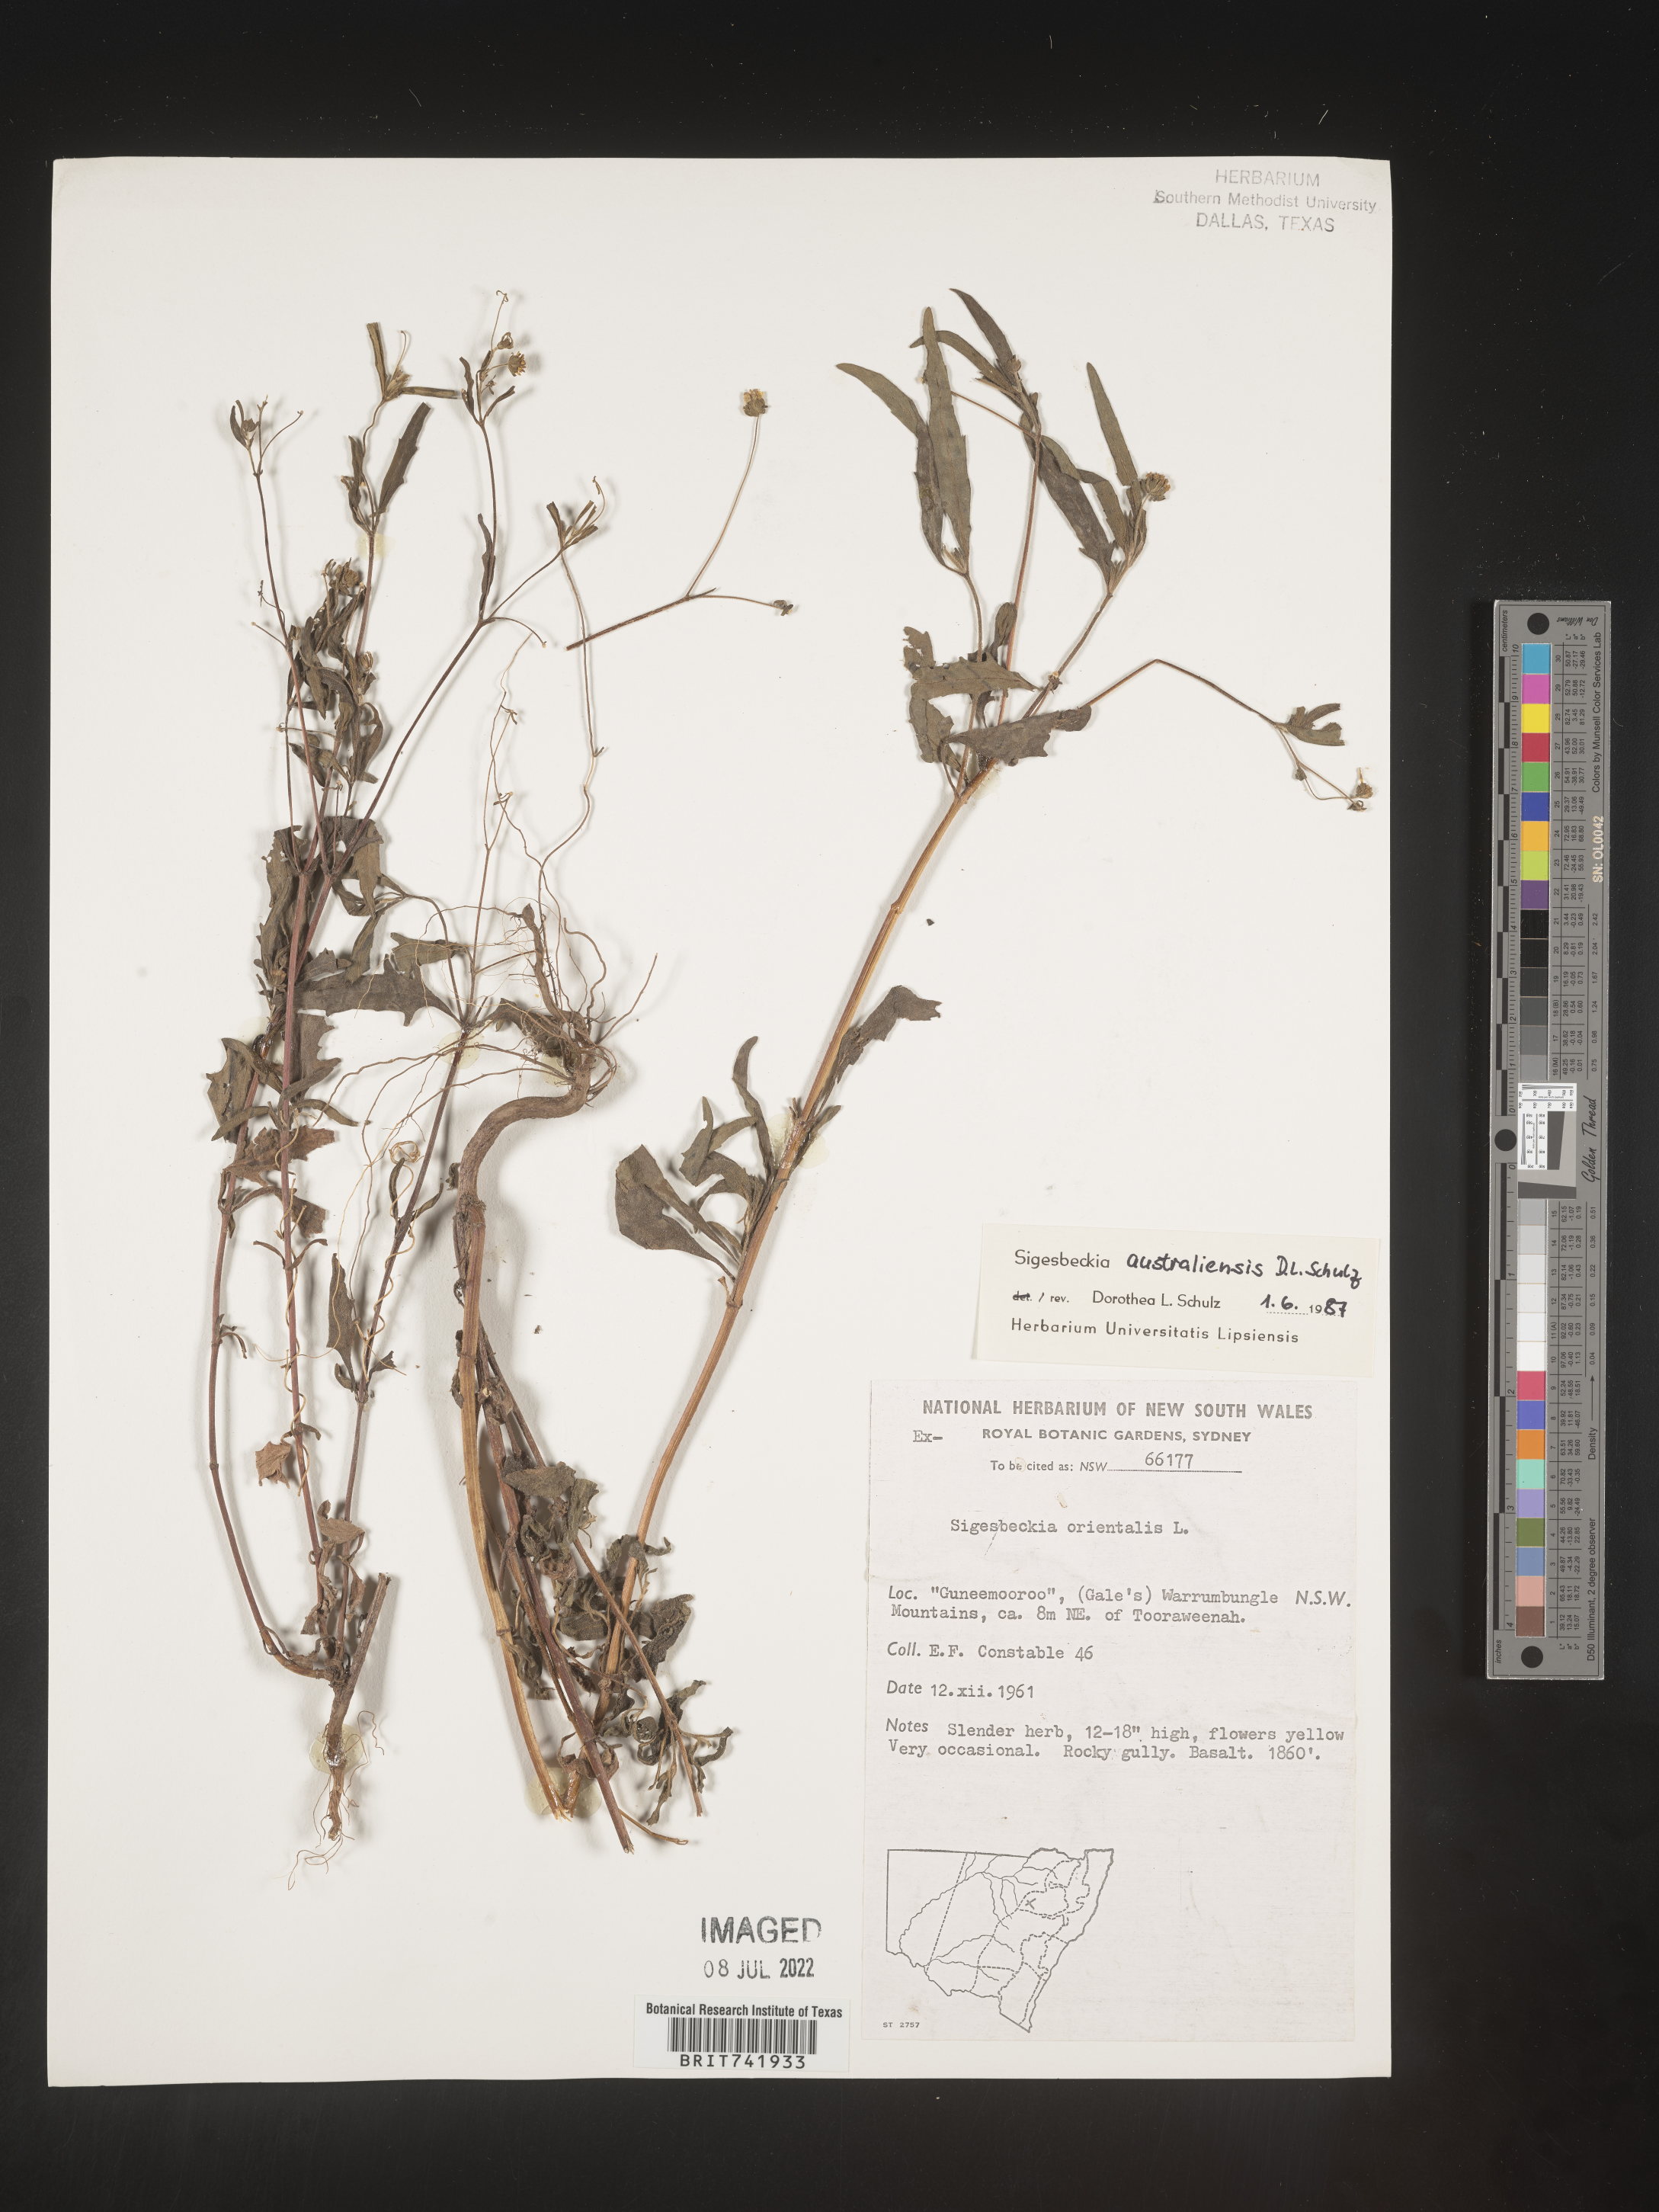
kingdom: Plantae
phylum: Tracheophyta
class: Magnoliopsida
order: Asterales
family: Asteraceae
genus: Sigesbeckia
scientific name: Sigesbeckia
